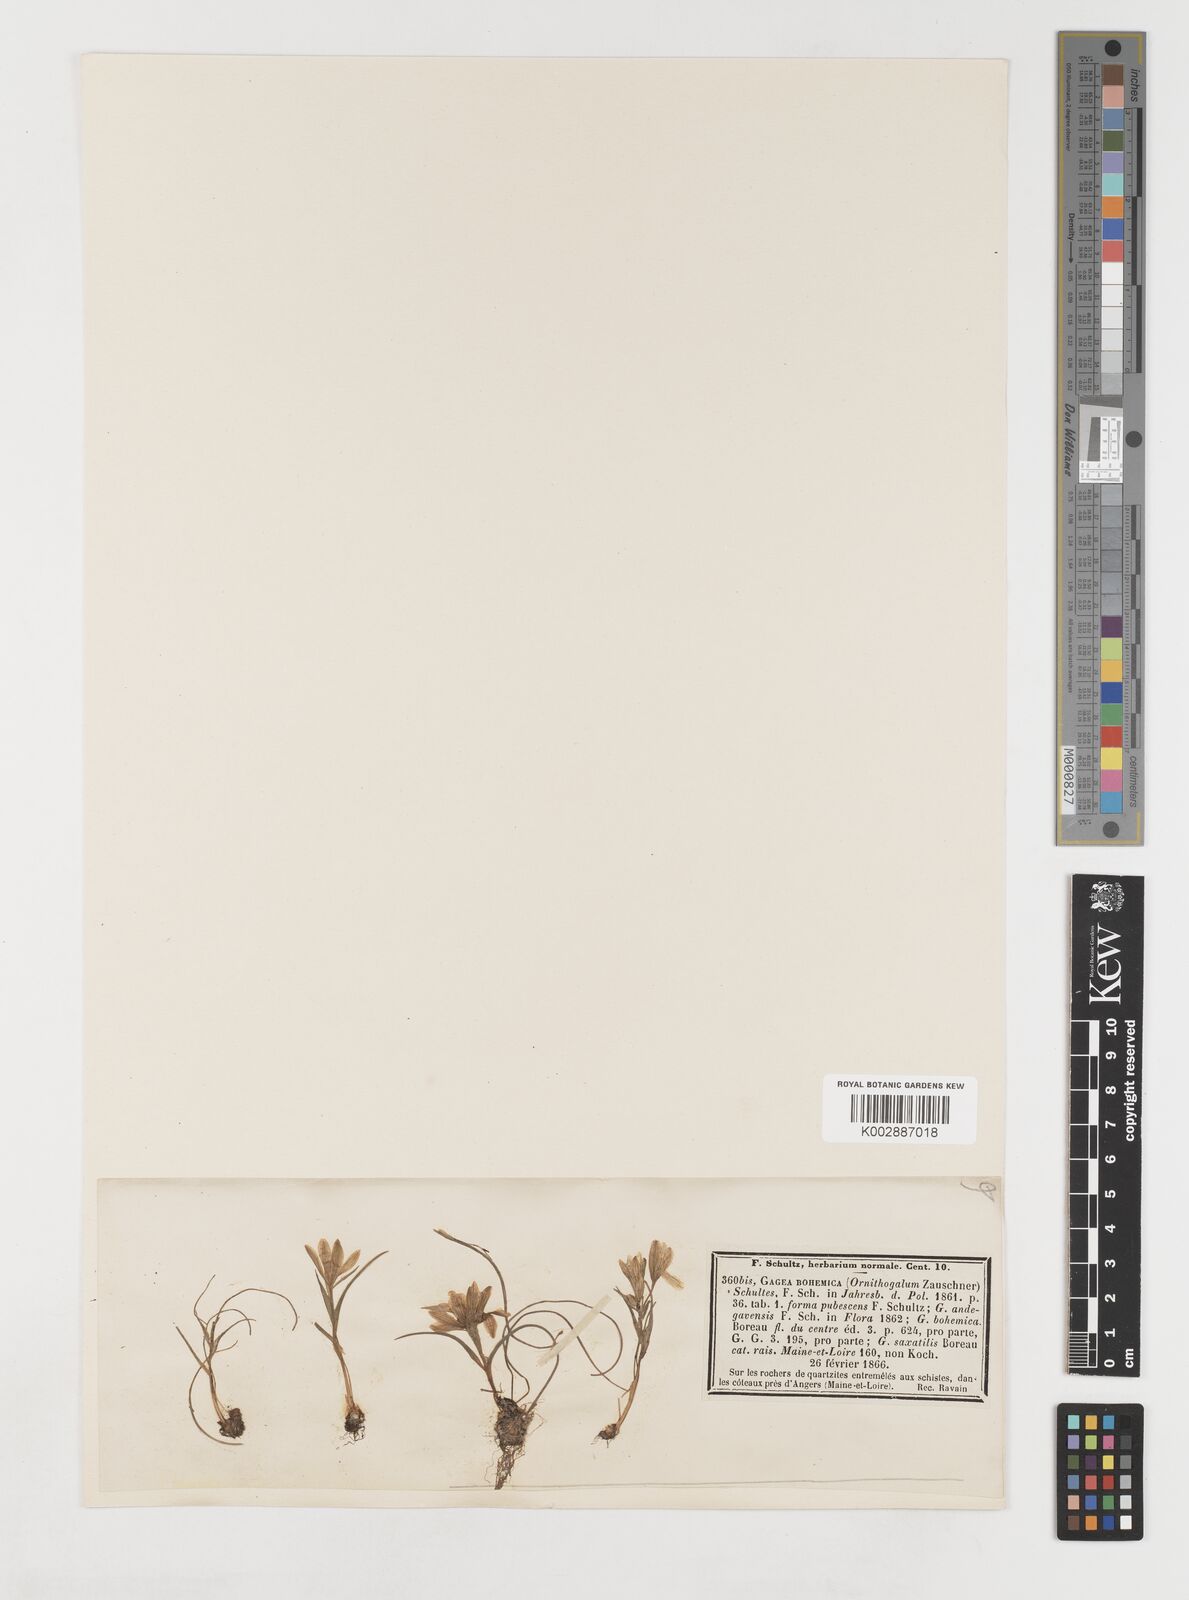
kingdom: Plantae
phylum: Tracheophyta
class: Liliopsida
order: Liliales
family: Liliaceae
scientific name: Liliaceae
